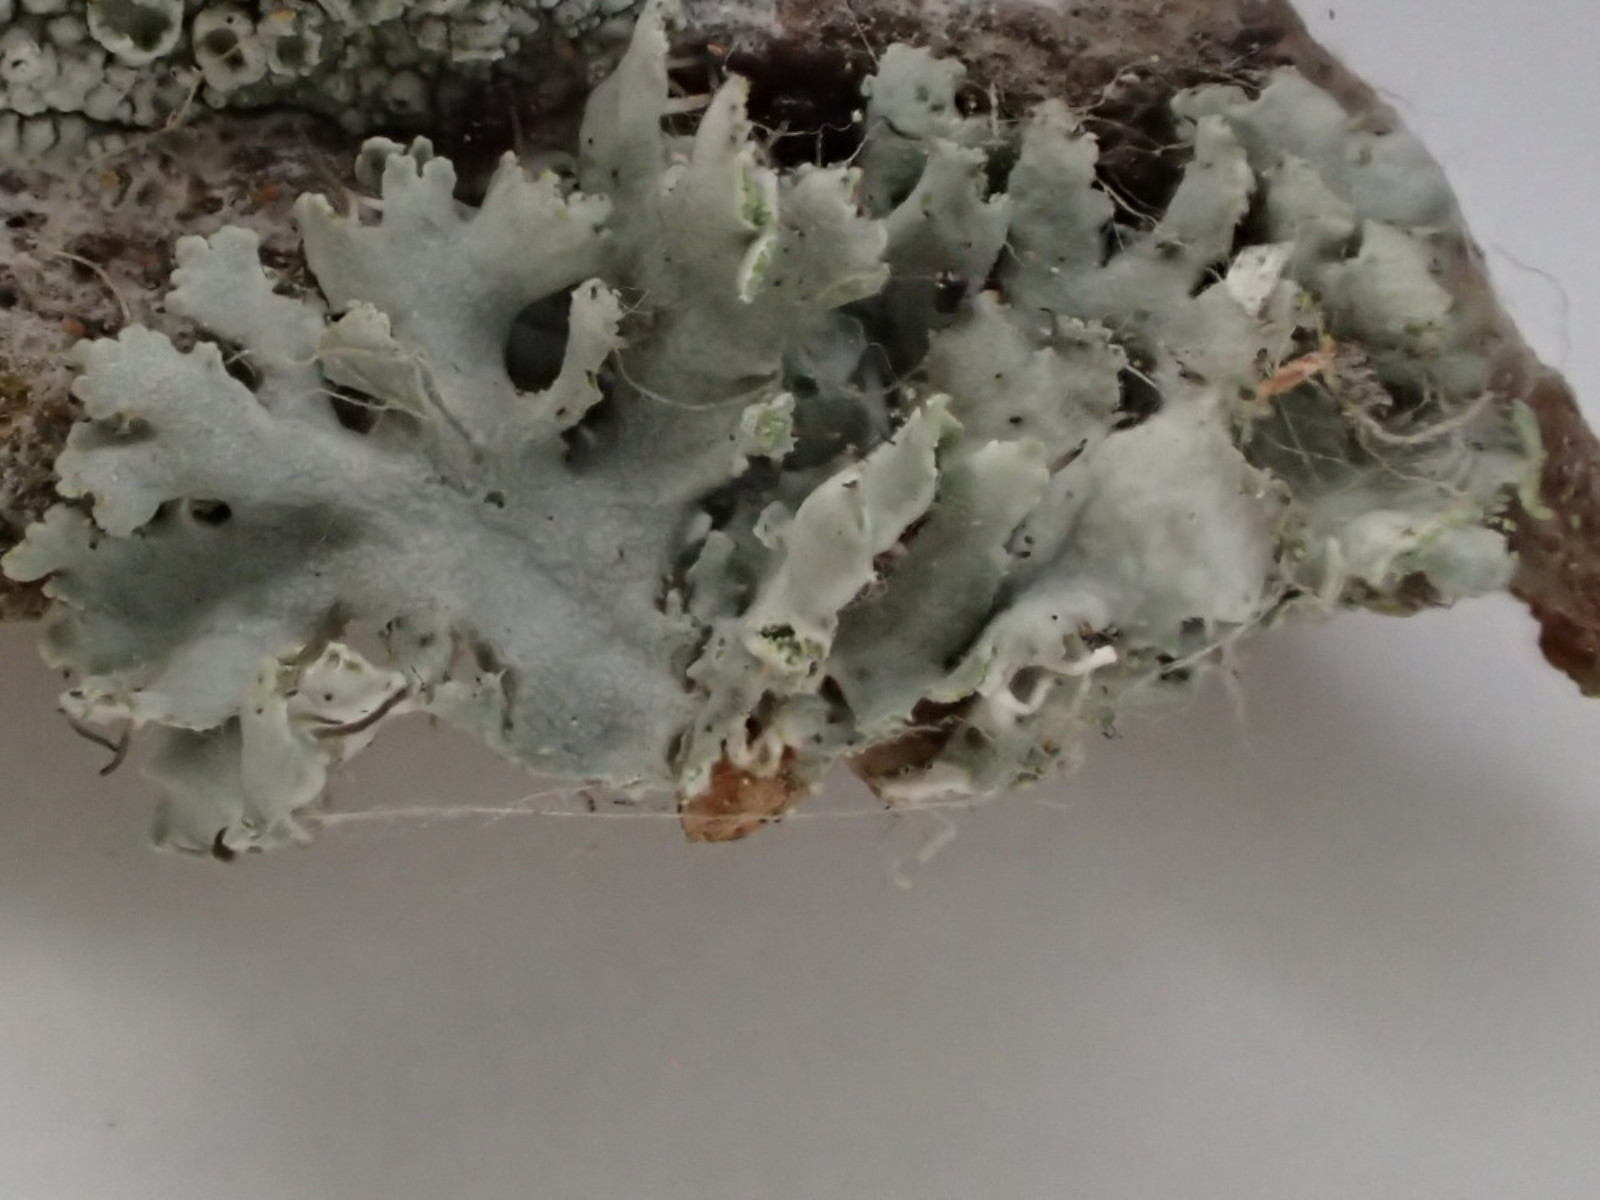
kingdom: Fungi
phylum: Ascomycota
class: Lecanoromycetes
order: Caliciales
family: Physciaceae
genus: Physcia
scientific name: Physcia tenella
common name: spæd rosetlav
